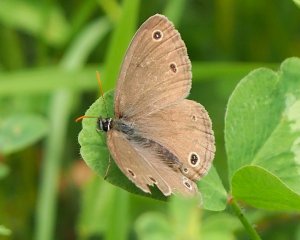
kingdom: Animalia
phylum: Arthropoda
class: Insecta
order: Lepidoptera
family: Nymphalidae
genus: Euptychia
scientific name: Euptychia cymela
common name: Little Wood Satyr
